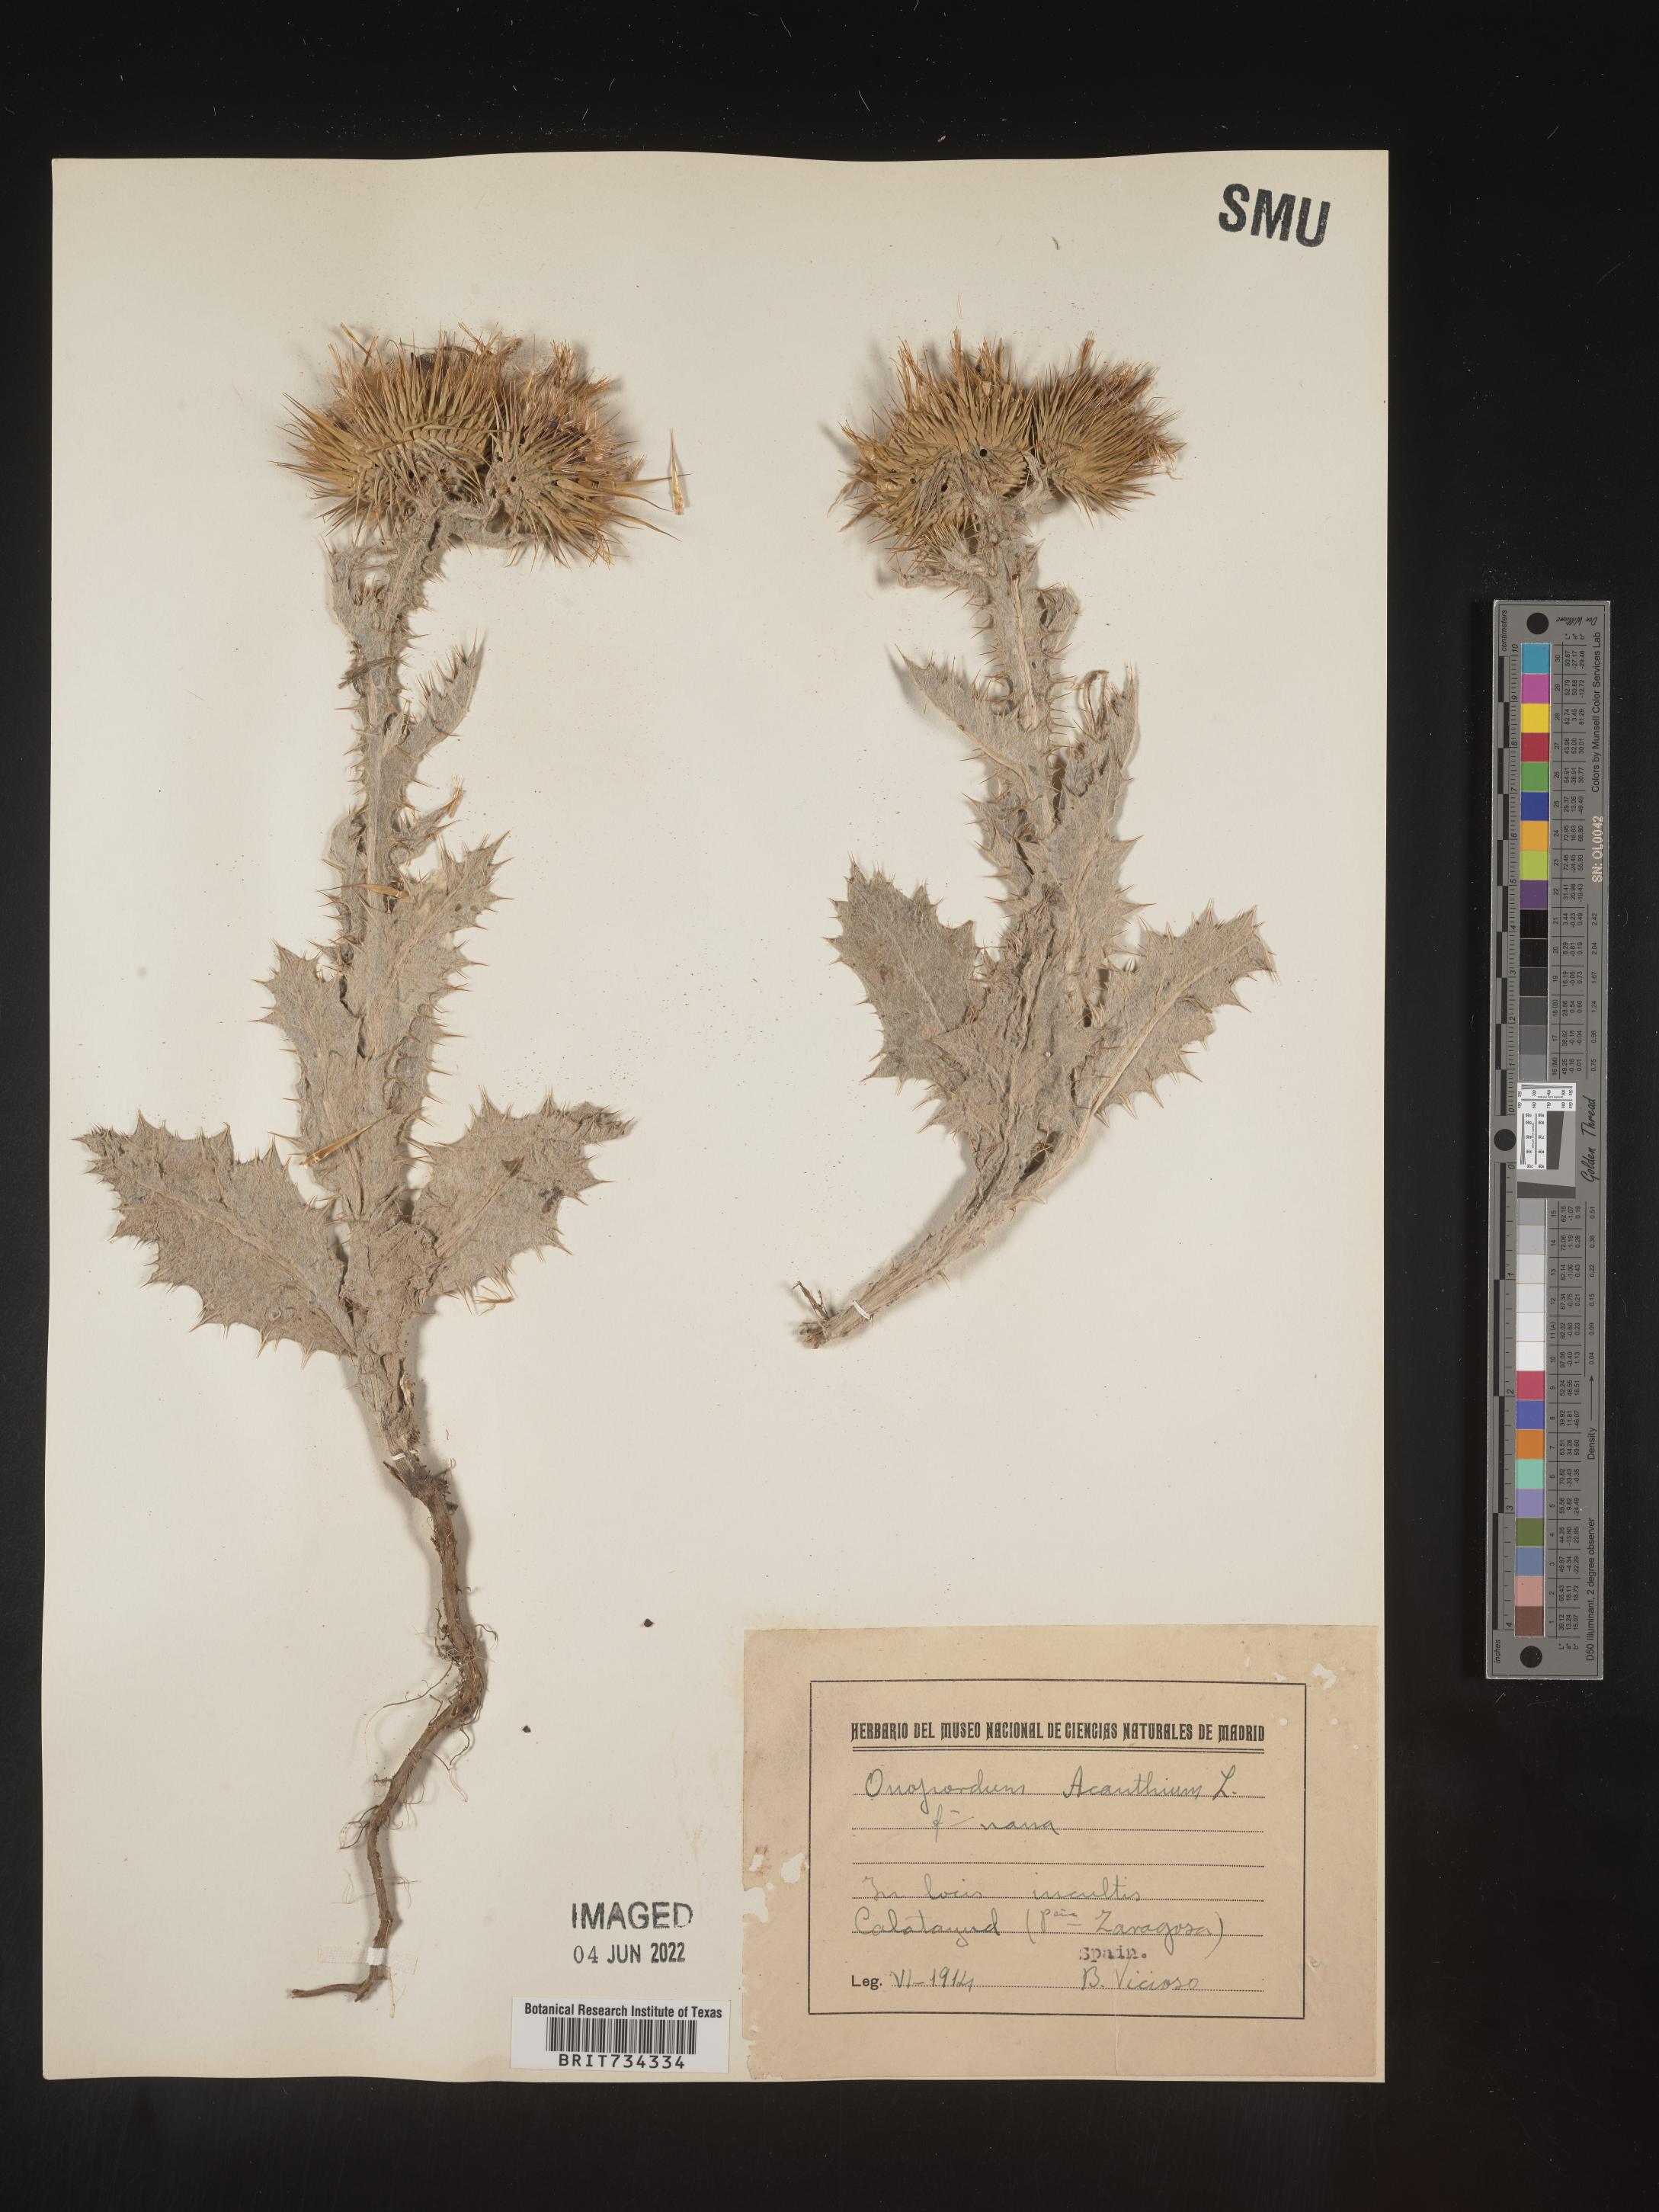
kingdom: Plantae
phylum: Tracheophyta
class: Magnoliopsida
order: Asterales
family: Asteraceae
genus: Onopordum
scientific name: Onopordum
